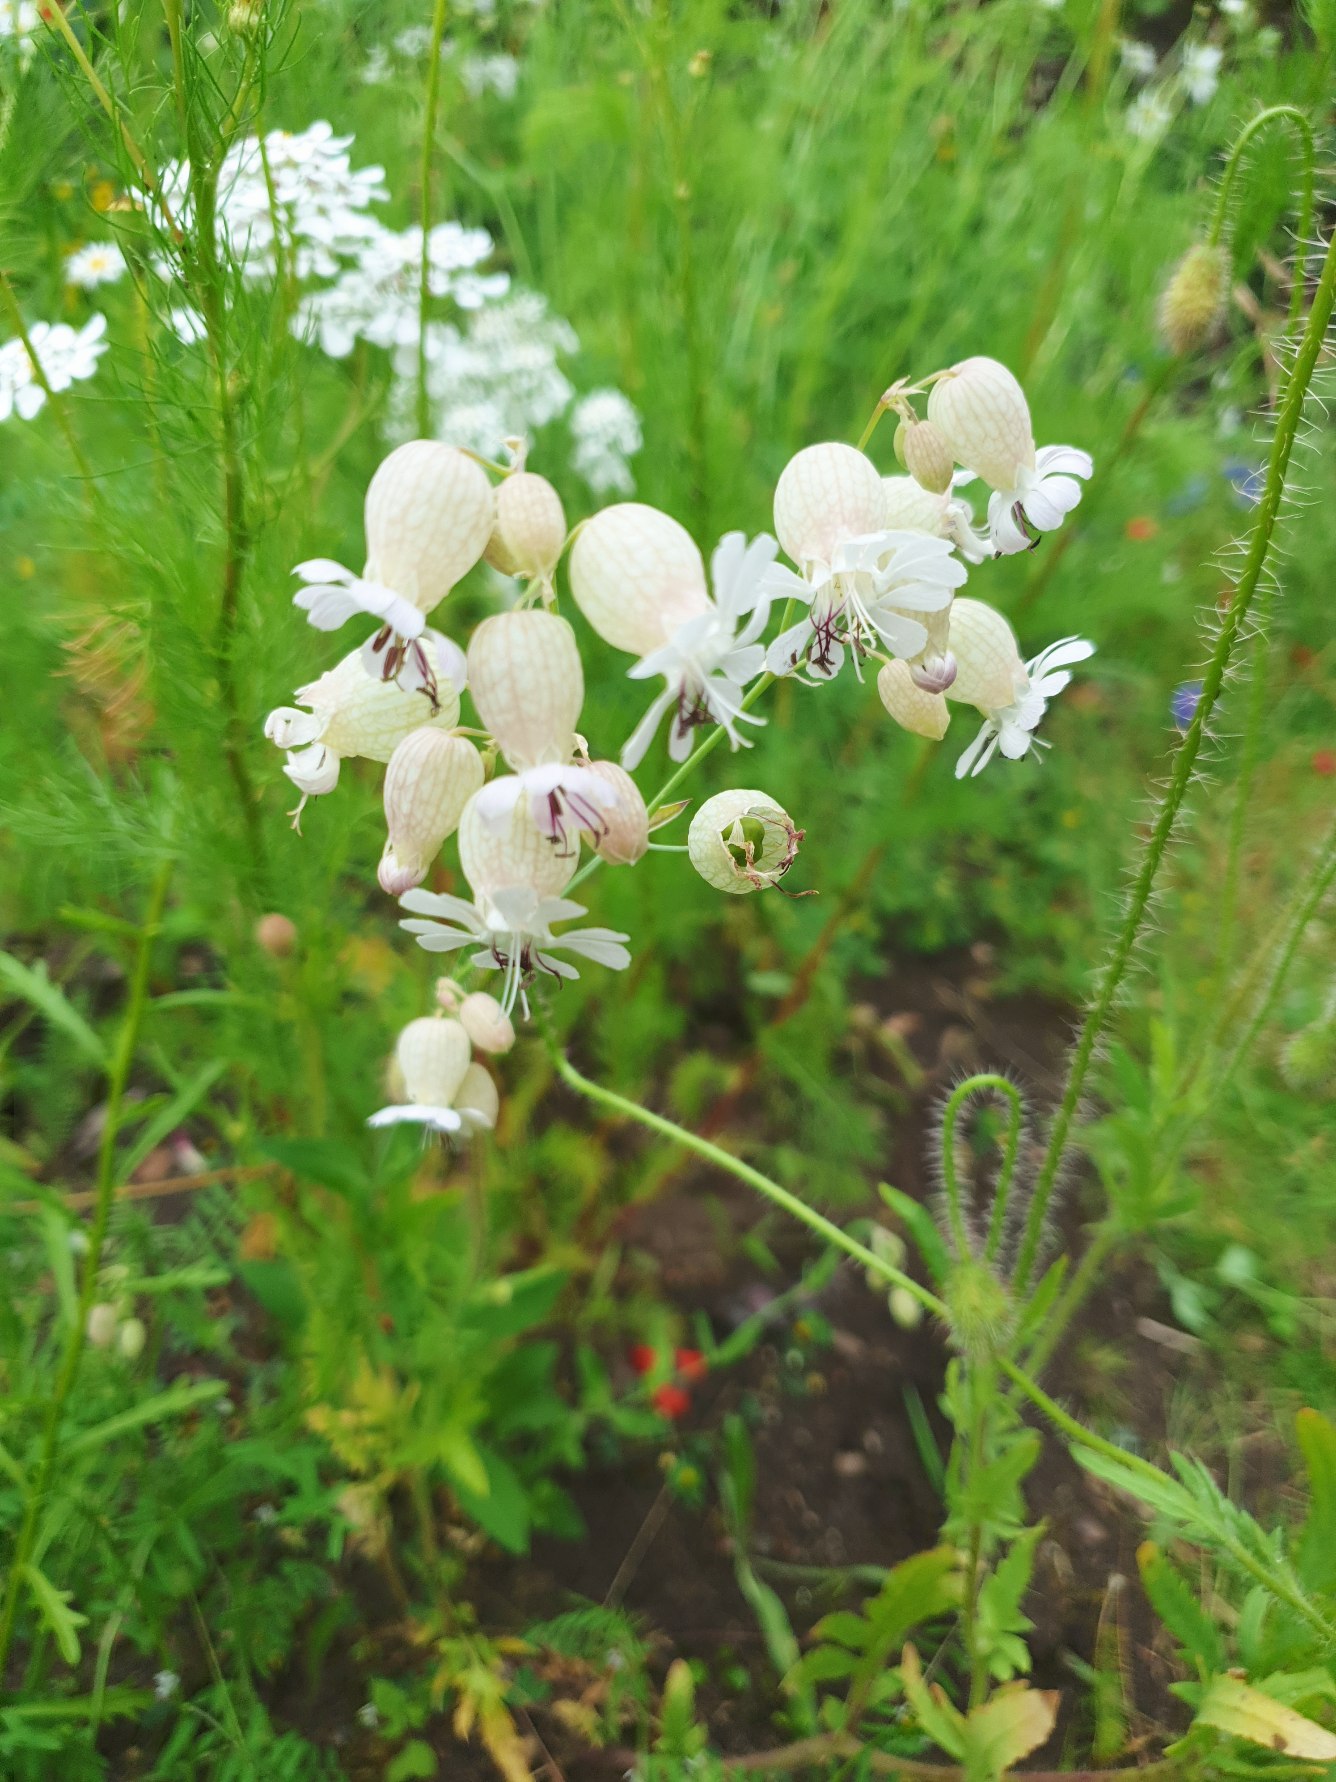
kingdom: Plantae
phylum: Tracheophyta
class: Magnoliopsida
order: Caryophyllales
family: Caryophyllaceae
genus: Silene
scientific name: Silene vulgaris
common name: Blæresmælde
